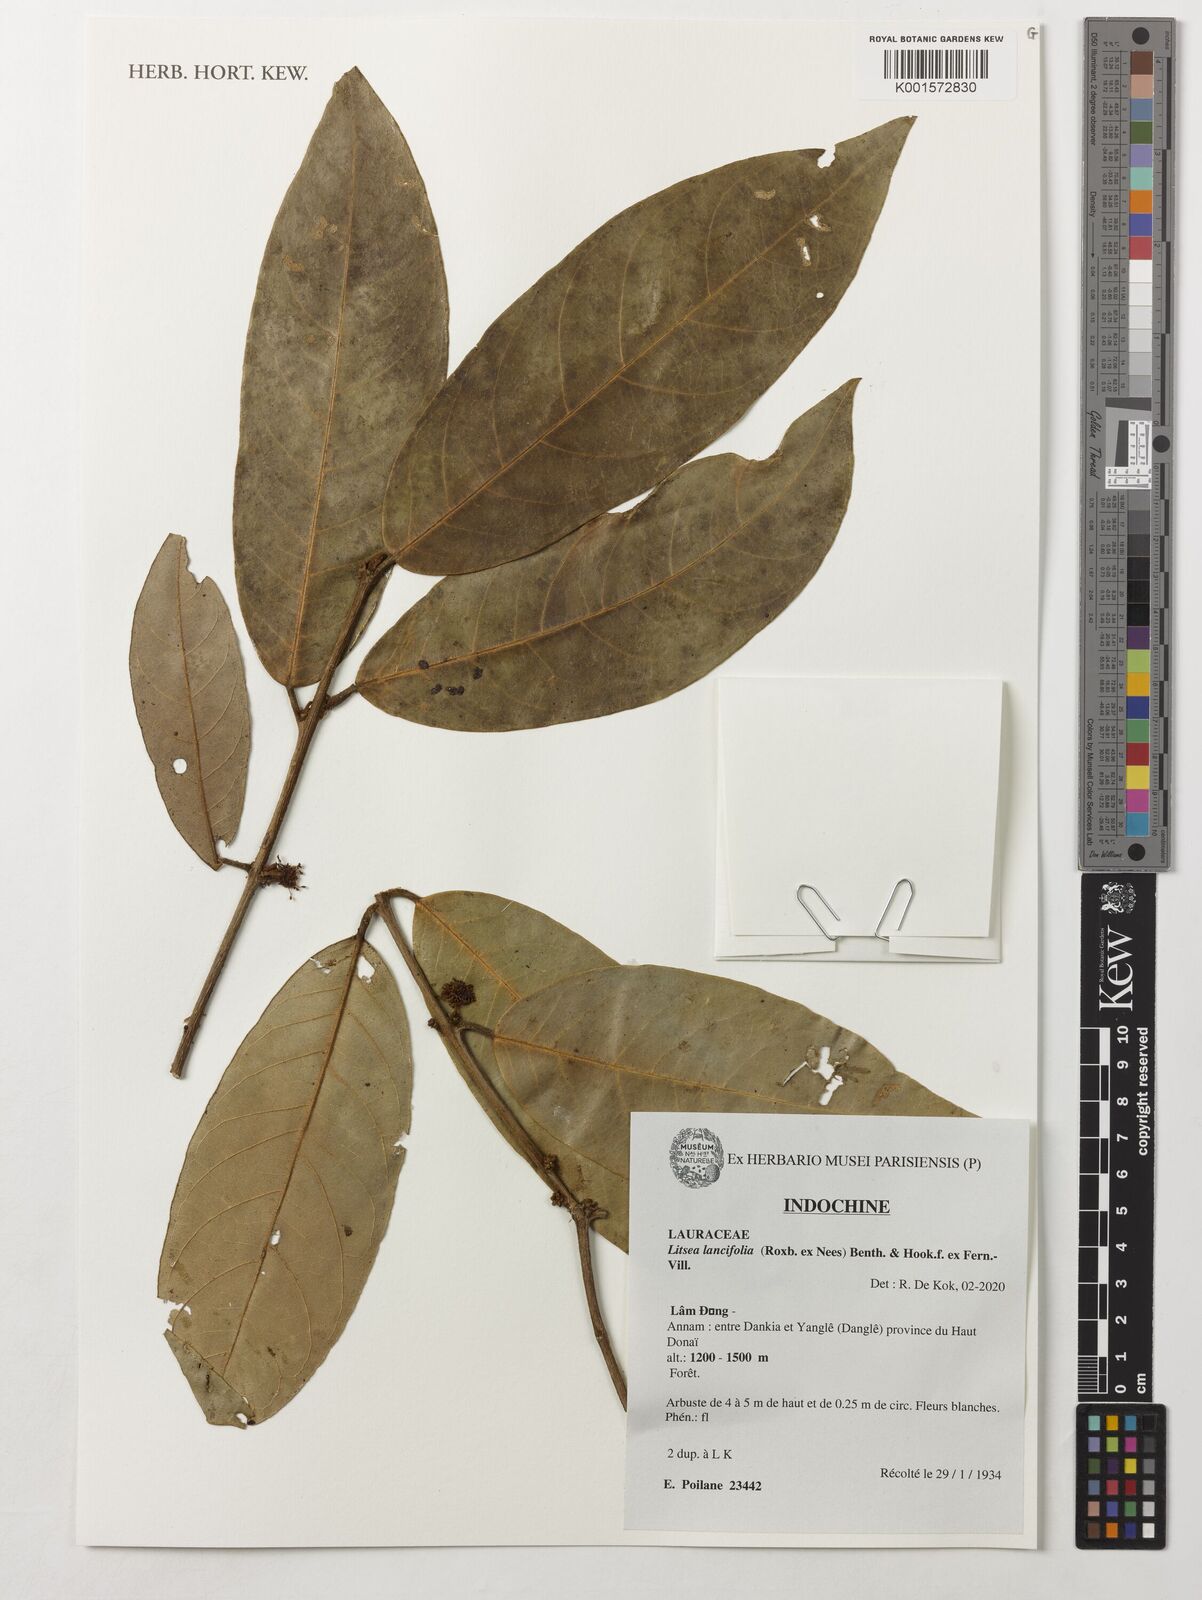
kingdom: Plantae
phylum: Tracheophyta
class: Magnoliopsida
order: Laurales
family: Lauraceae
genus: Litsea
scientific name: Litsea lancifolia
